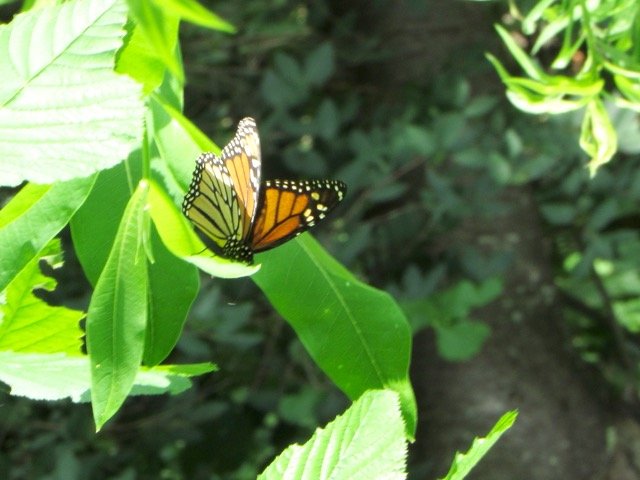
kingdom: Animalia
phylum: Arthropoda
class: Insecta
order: Lepidoptera
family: Nymphalidae
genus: Danaus
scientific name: Danaus plexippus
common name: Monarch
